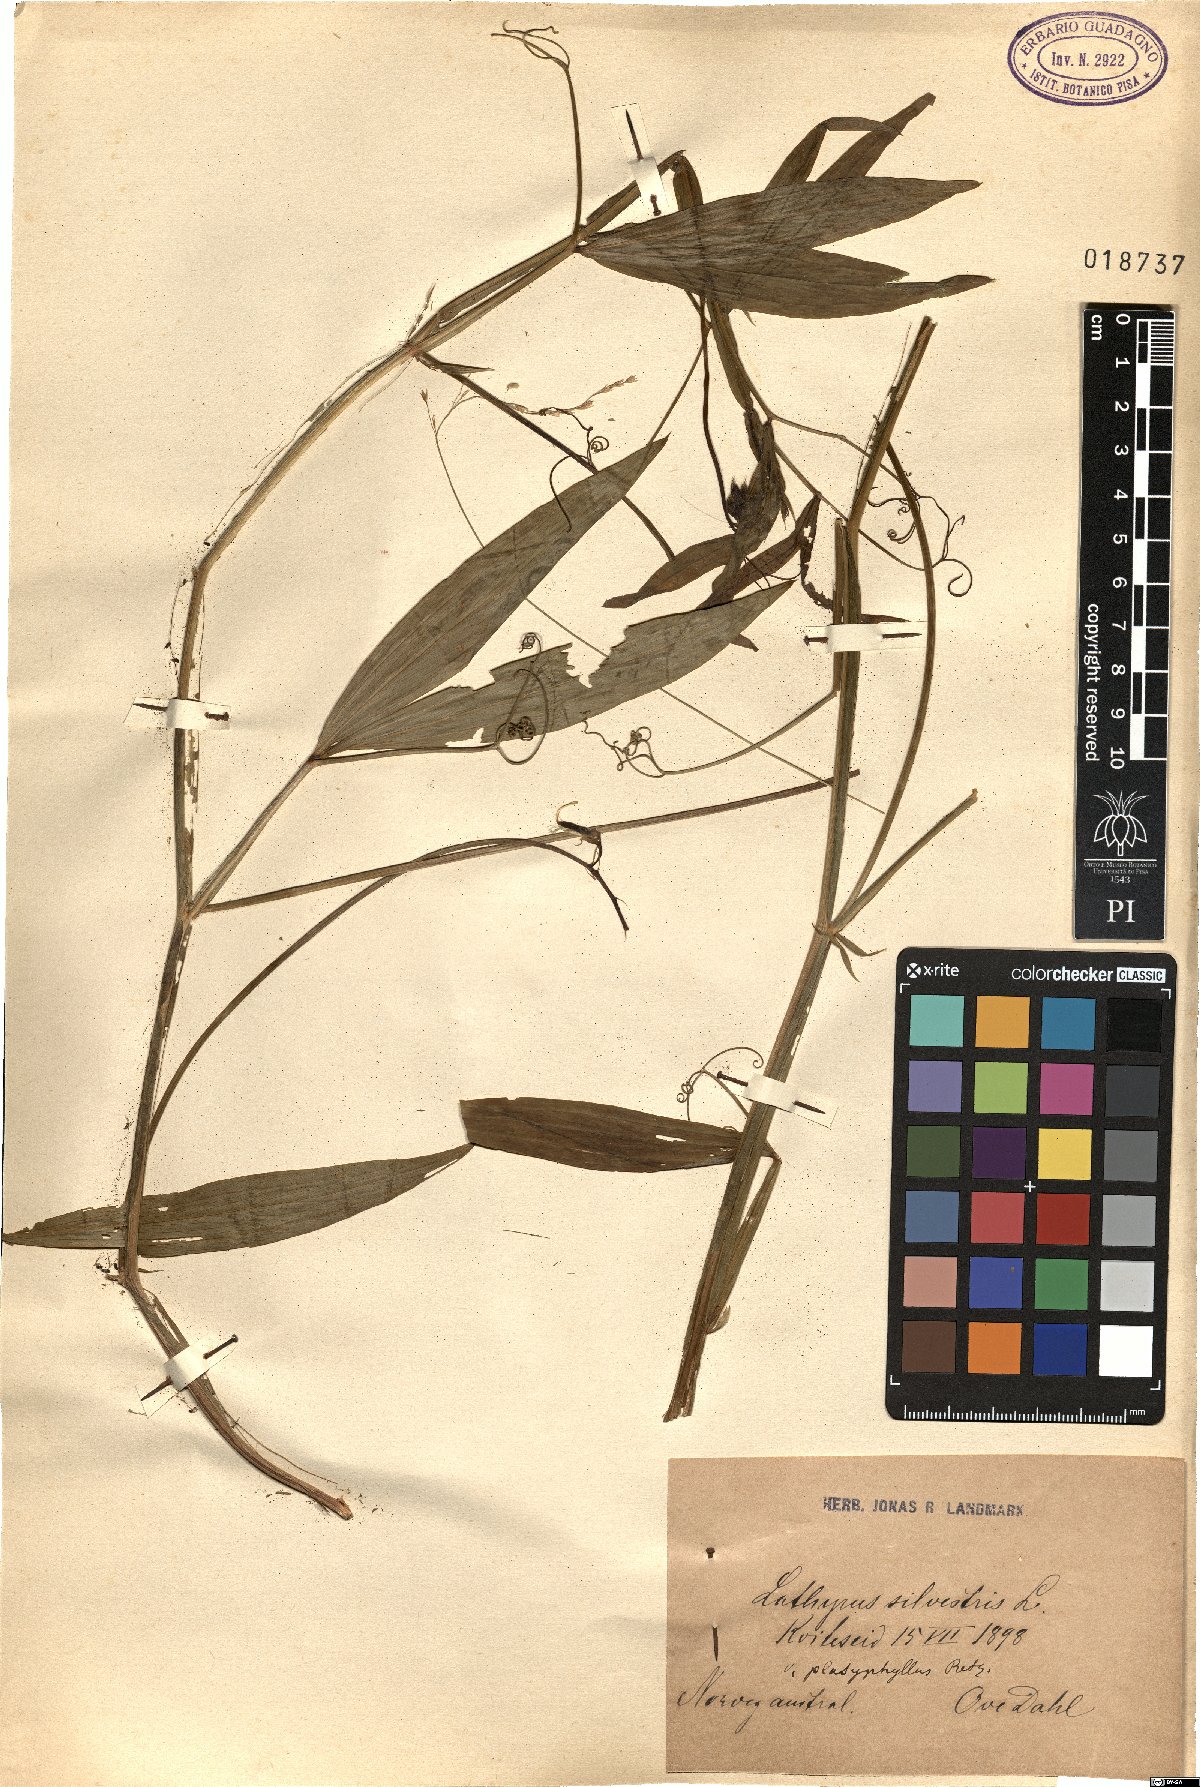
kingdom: Plantae
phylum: Tracheophyta
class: Magnoliopsida
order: Fabales
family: Fabaceae
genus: Lathyrus
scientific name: Lathyrus sylvestris
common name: Flat pea
